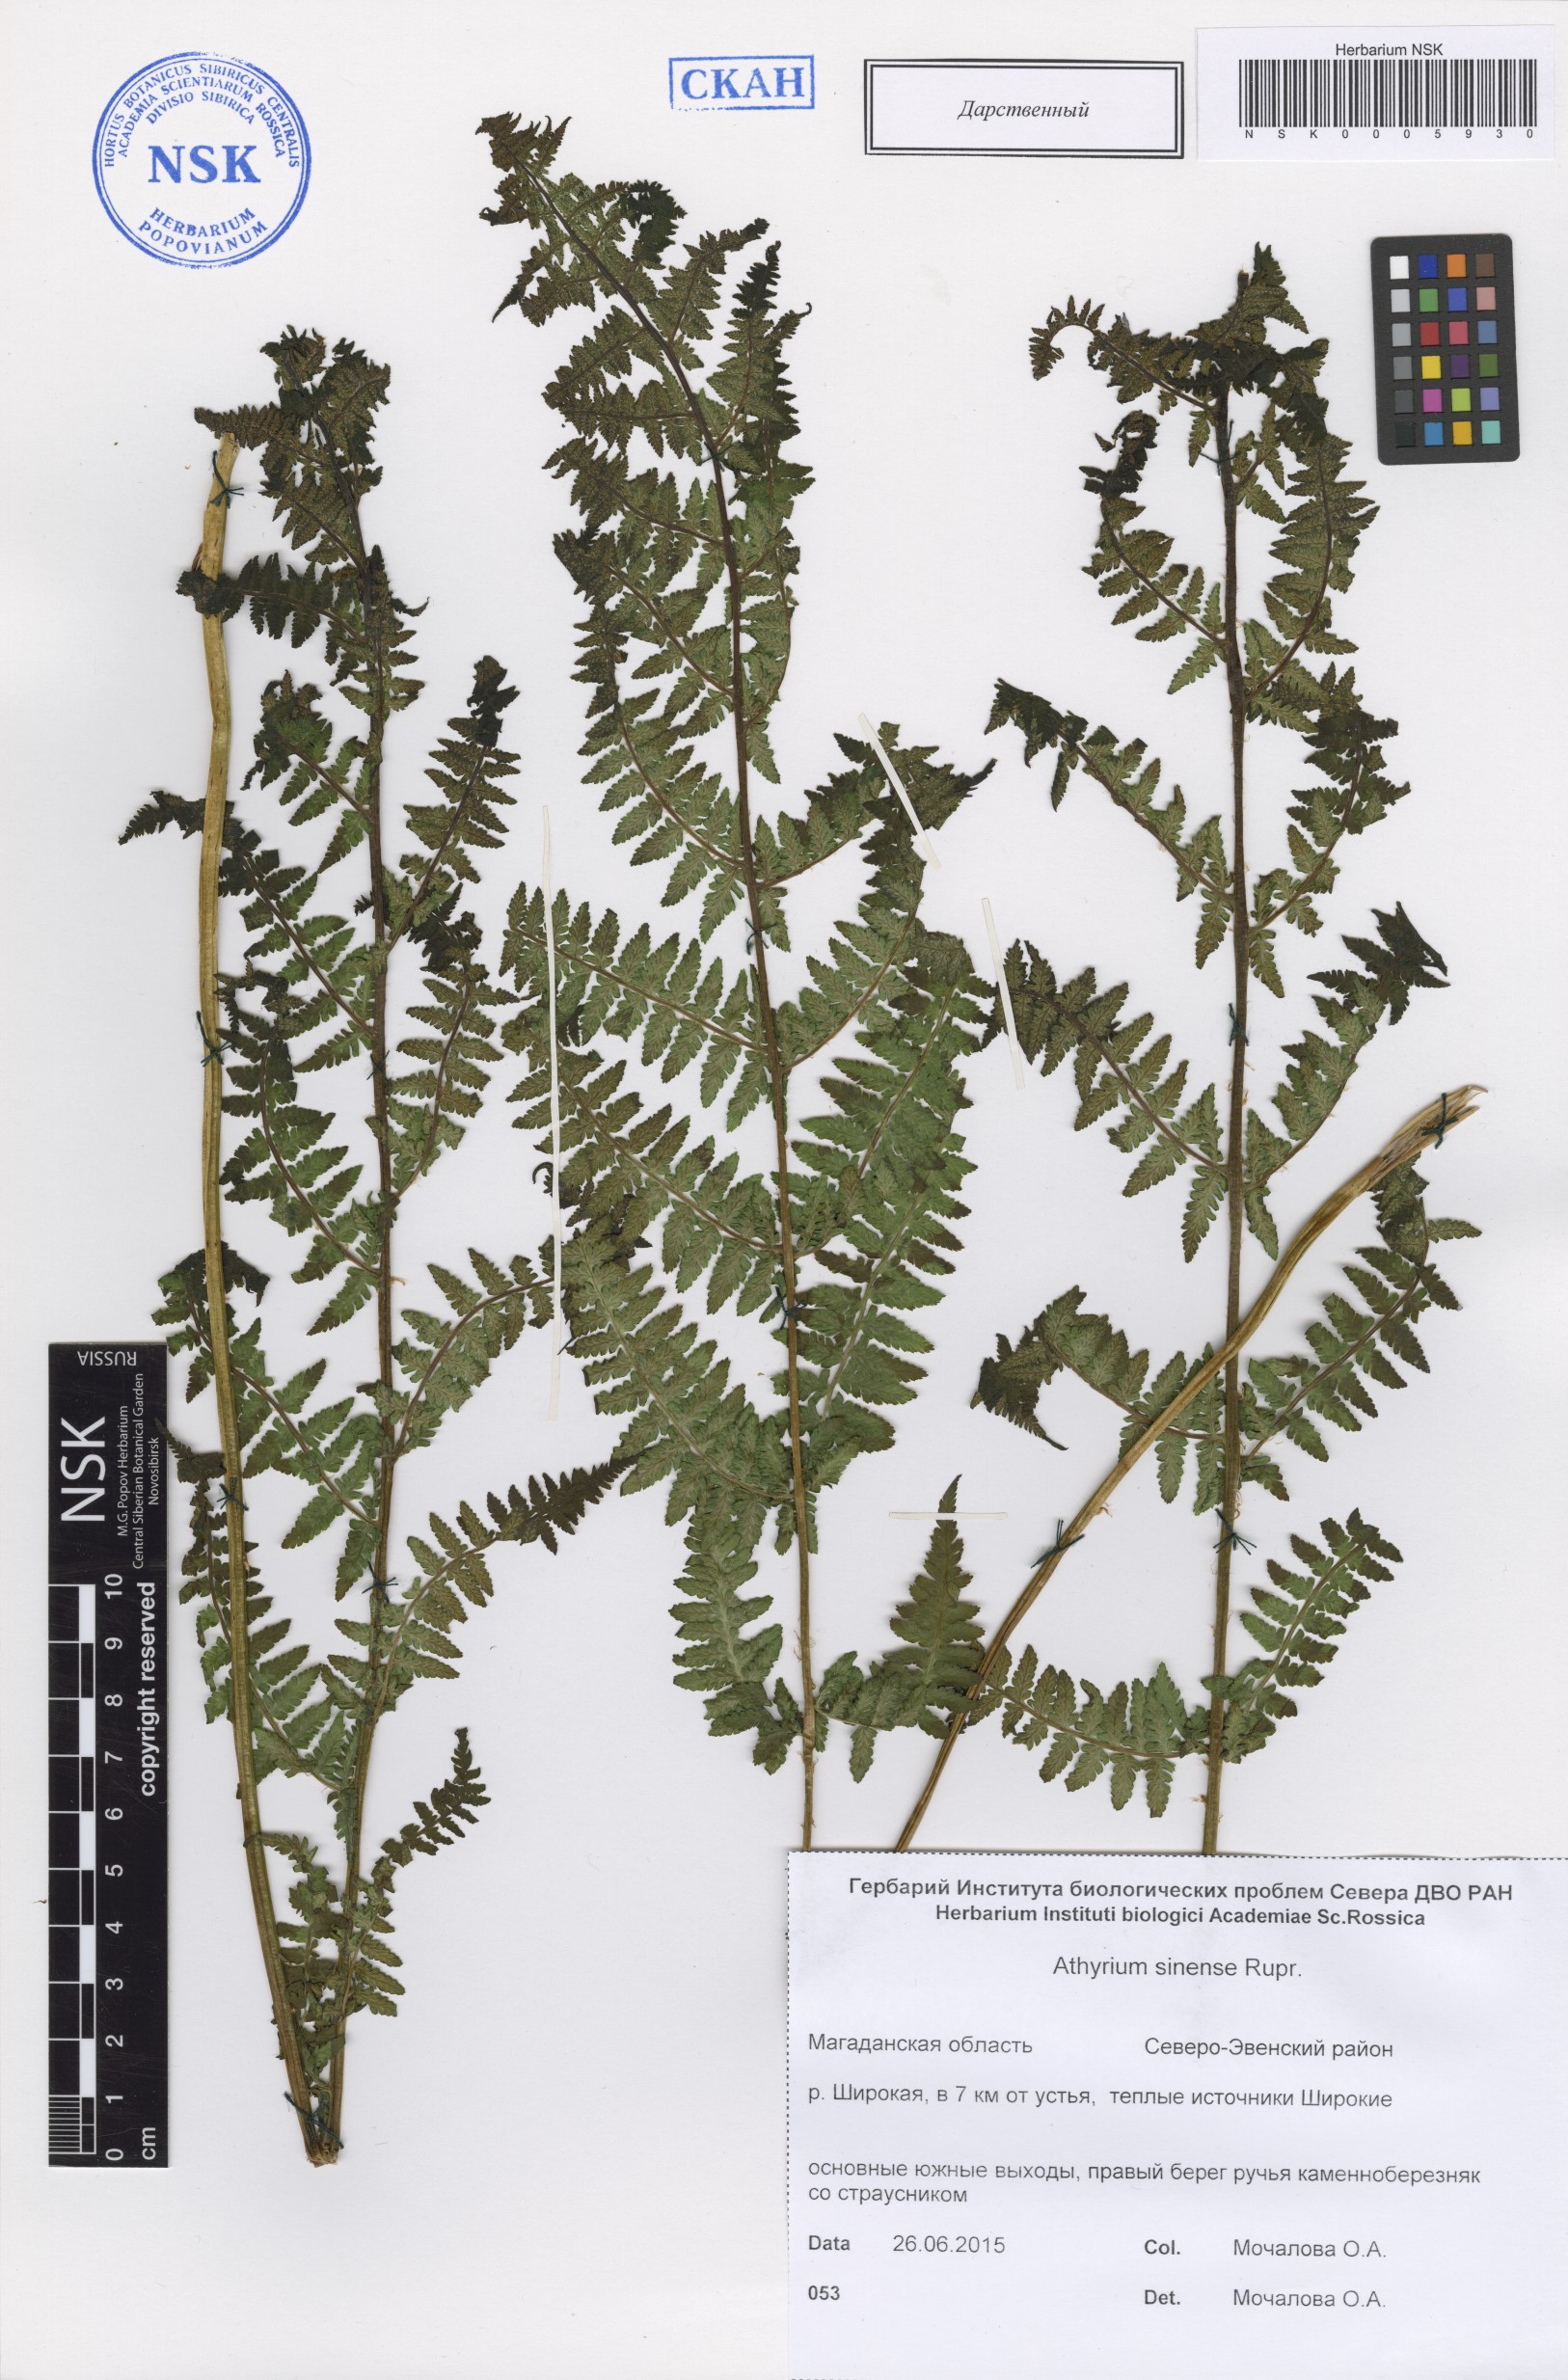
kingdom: Plantae
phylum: Tracheophyta
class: Polypodiopsida
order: Polypodiales
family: Athyriaceae
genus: Athyrium
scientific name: Athyrium sinense
